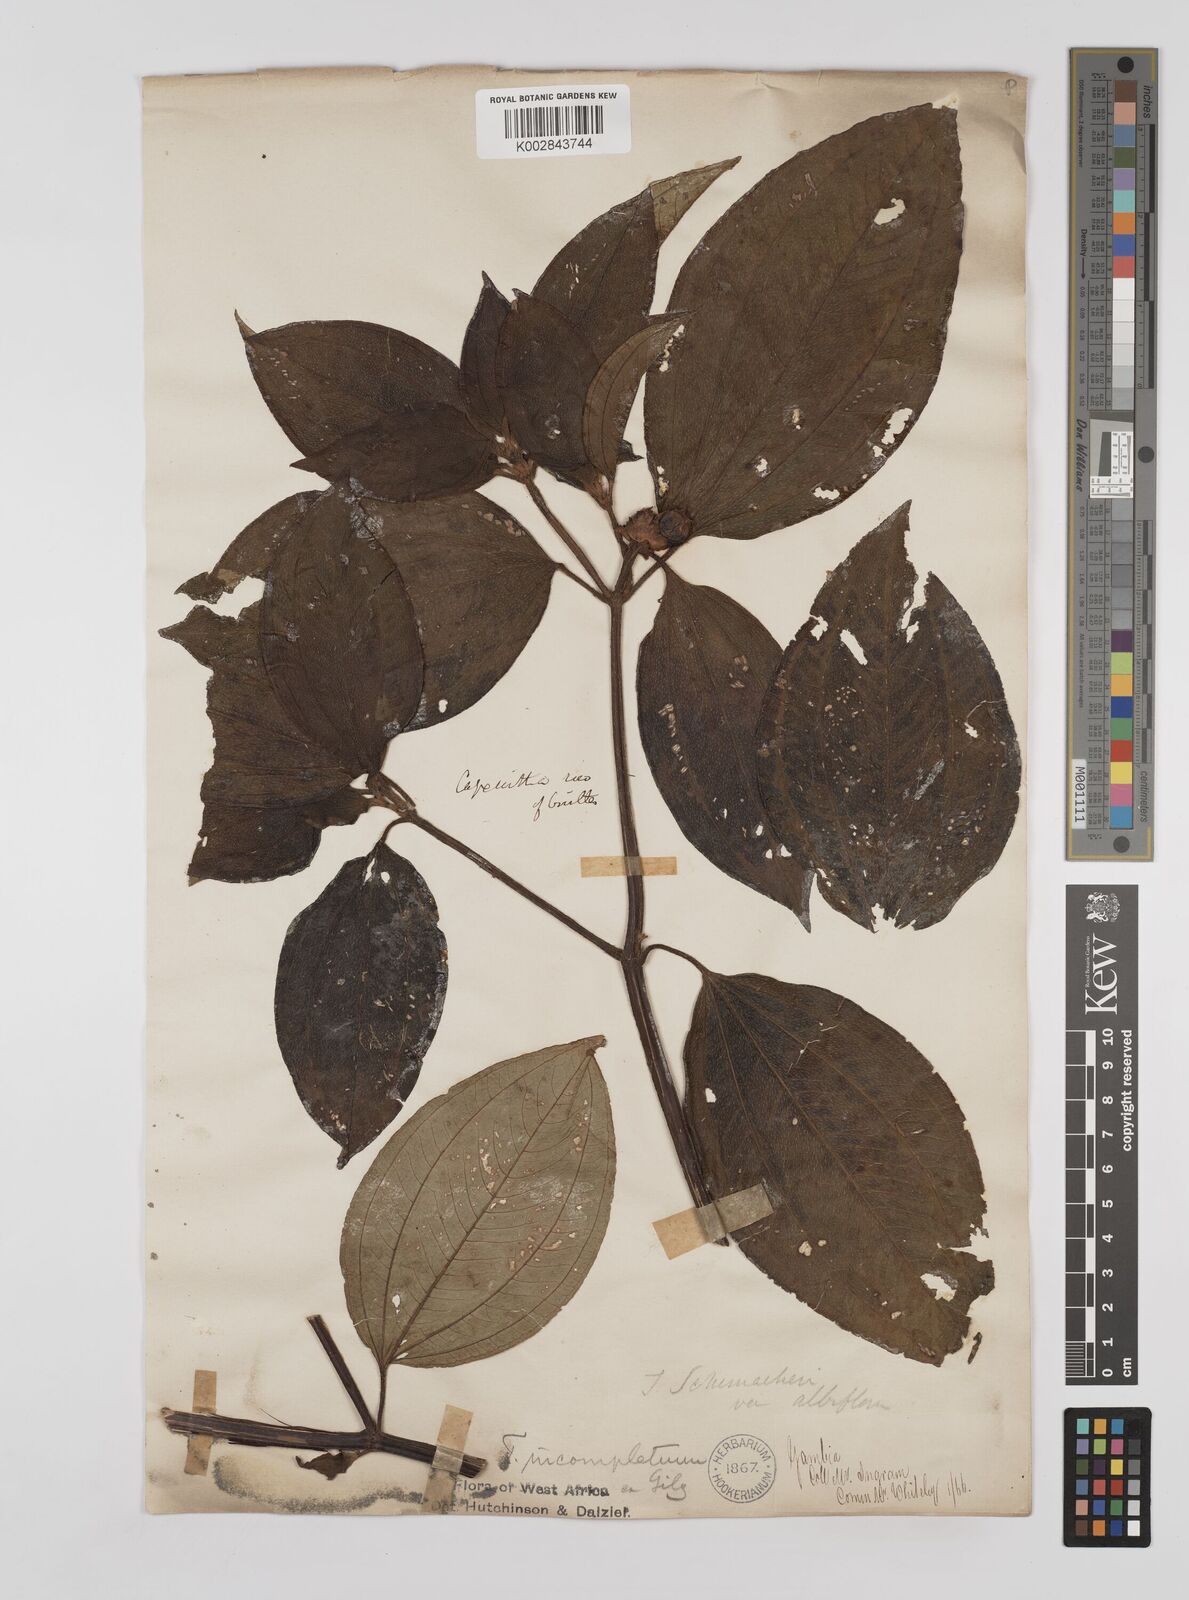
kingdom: Plantae
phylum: Tracheophyta
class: Magnoliopsida
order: Myrtales
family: Melastomataceae
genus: Tristemma
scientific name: Tristemma mauritianum
